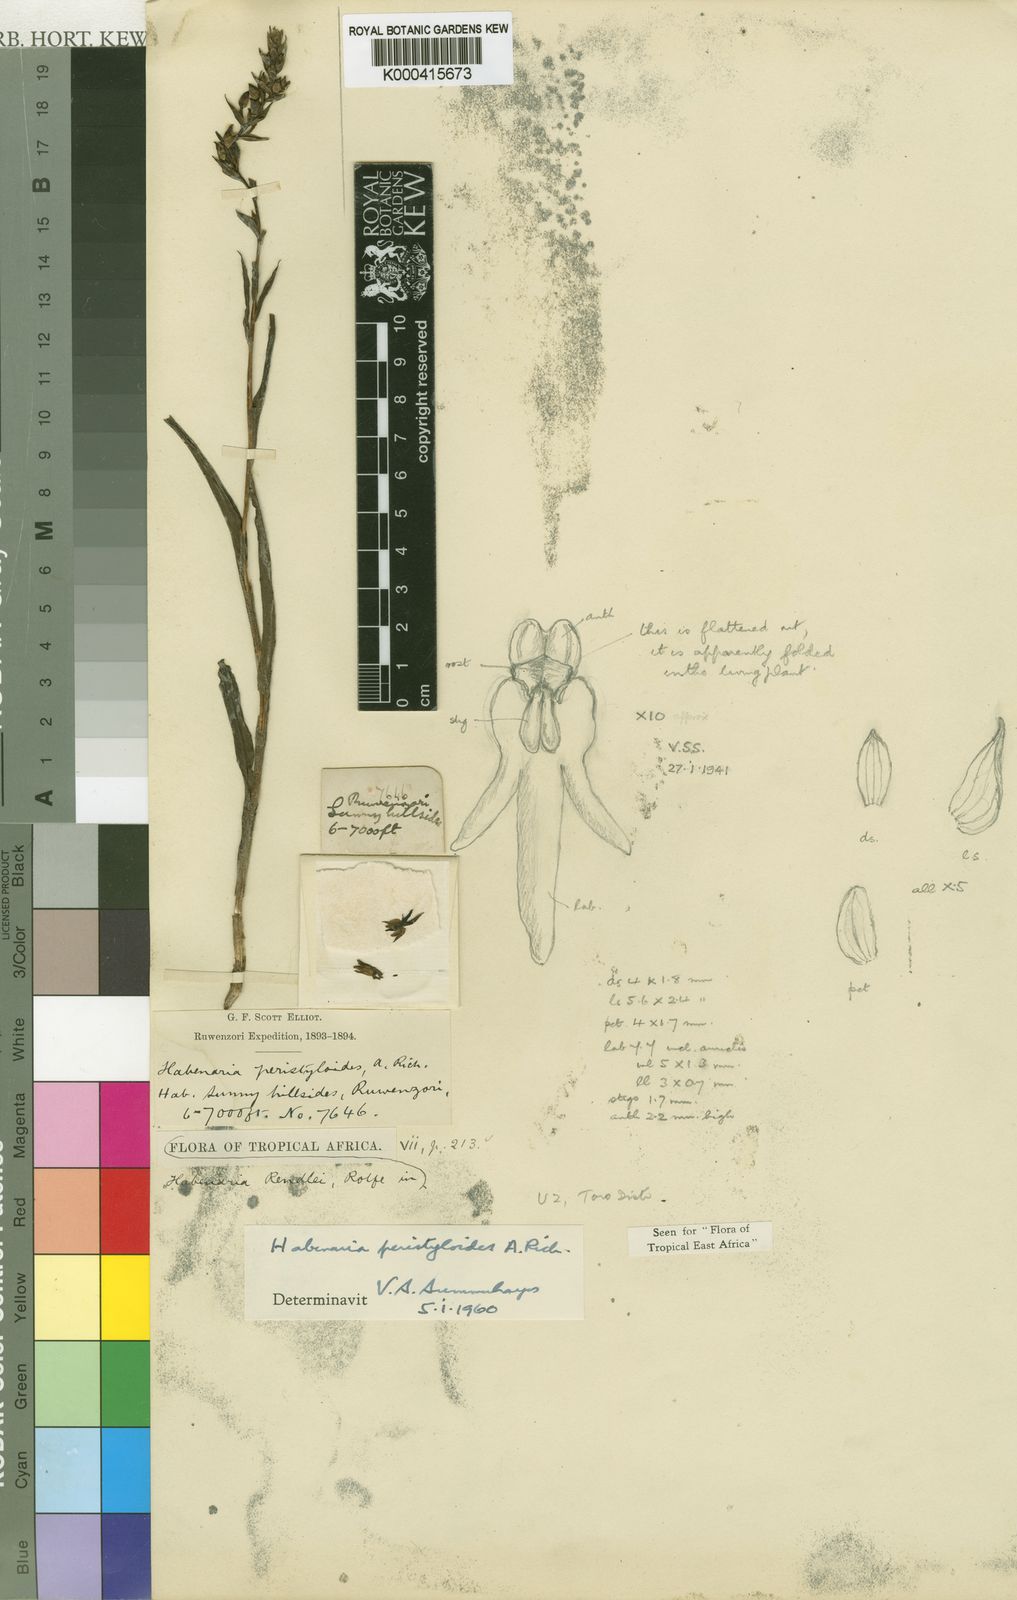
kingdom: Plantae
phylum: Tracheophyta
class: Liliopsida
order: Asparagales
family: Orchidaceae
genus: Habenaria
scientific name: Habenaria peristyloides
